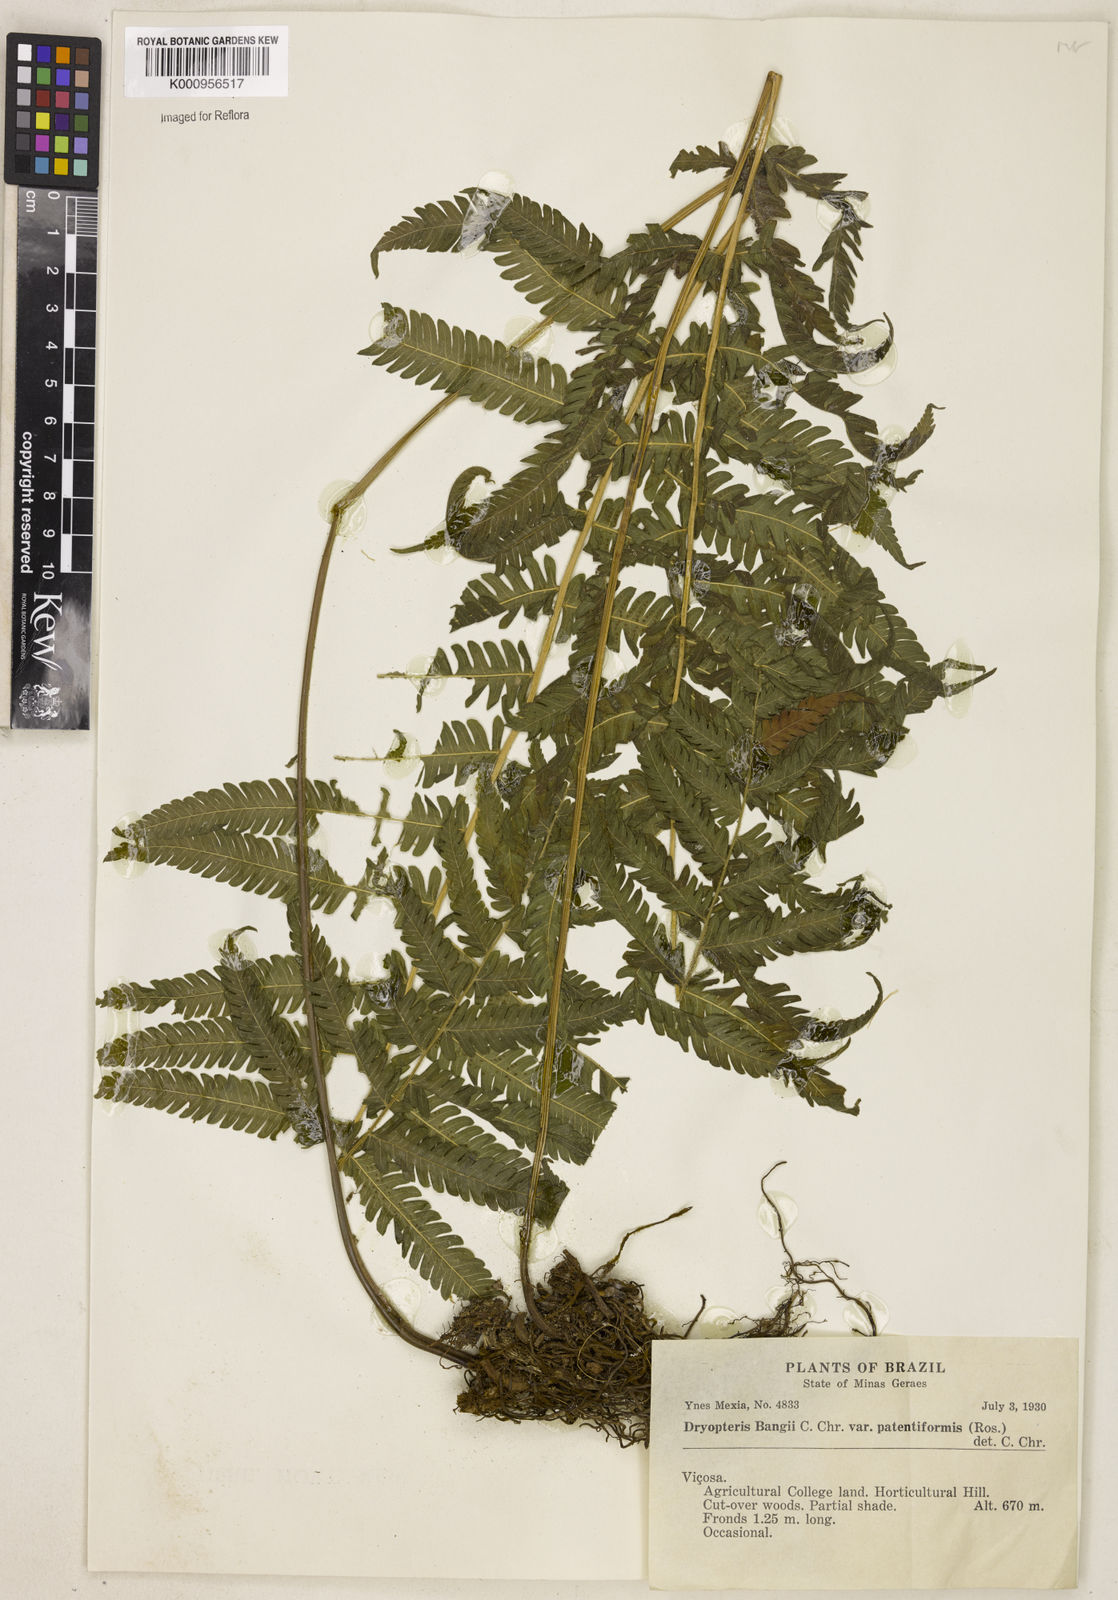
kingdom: Plantae
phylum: Tracheophyta
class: Polypodiopsida
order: Polypodiales
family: Thelypteridaceae
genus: Christella
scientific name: Christella
